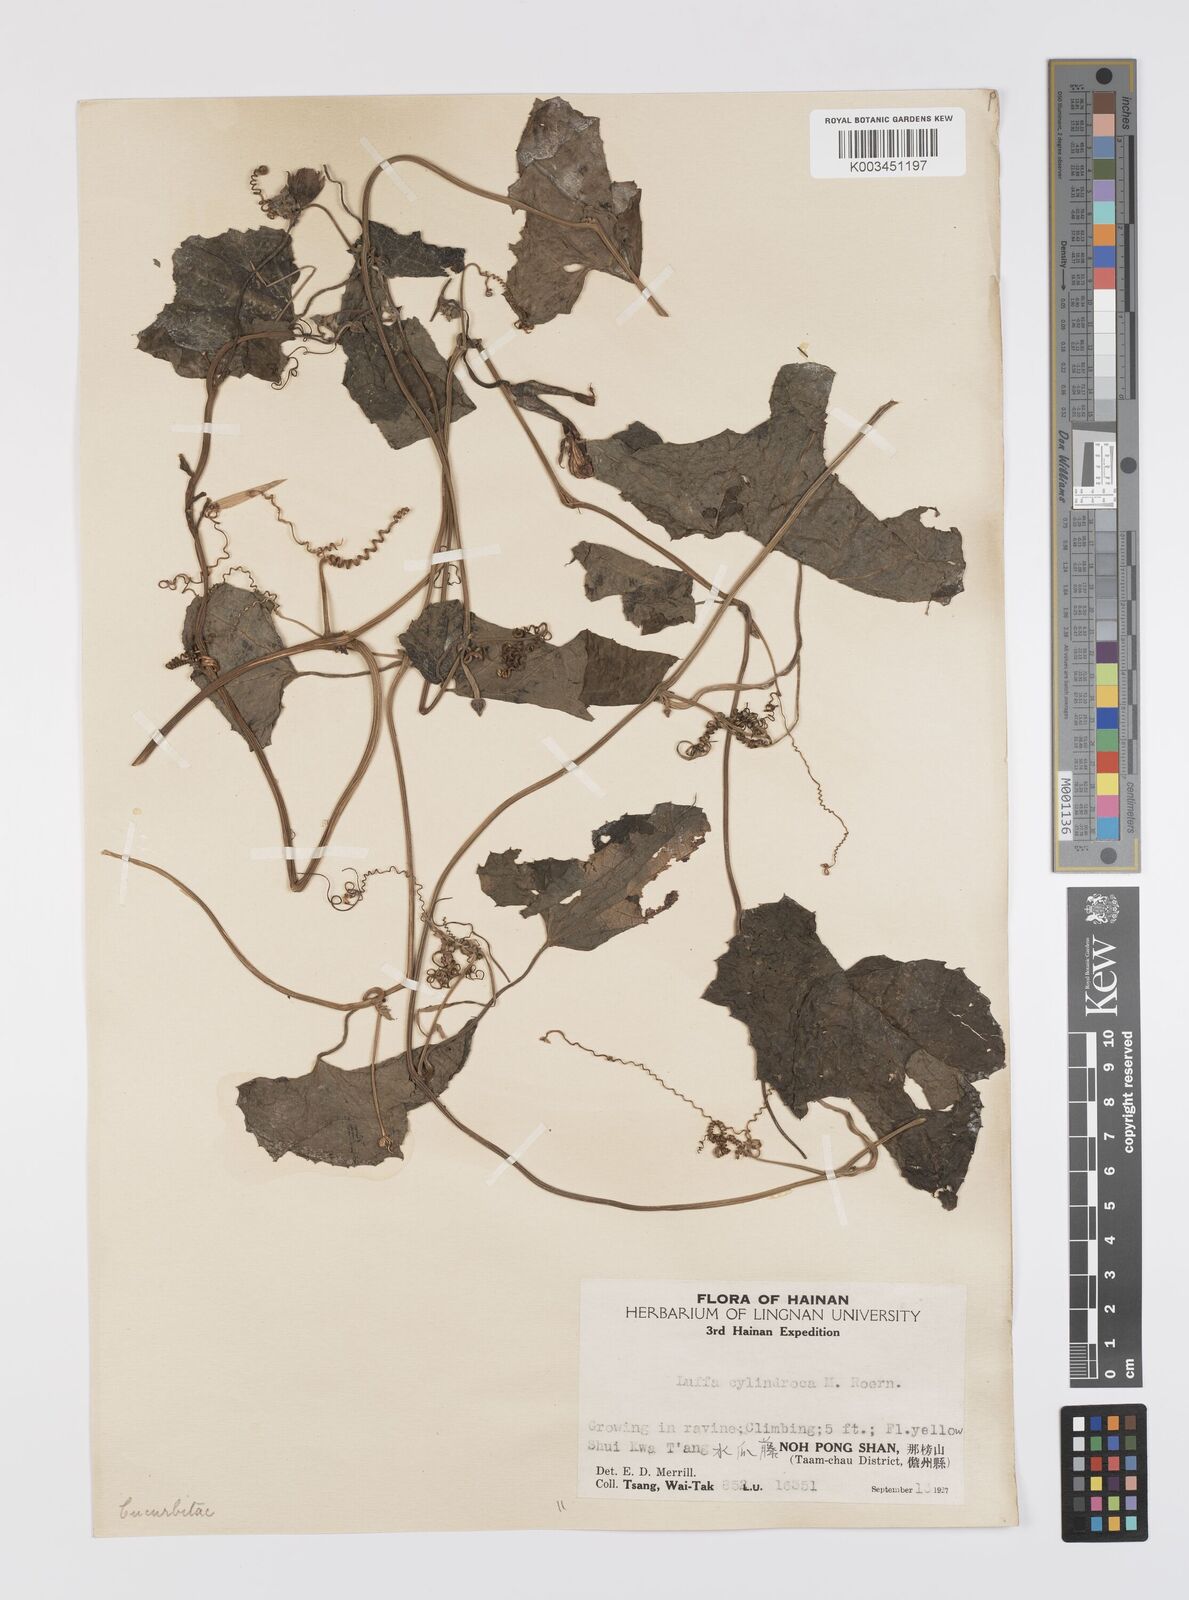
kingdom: Plantae
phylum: Tracheophyta
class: Magnoliopsida
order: Cucurbitales
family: Cucurbitaceae
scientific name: Cucurbitaceae
